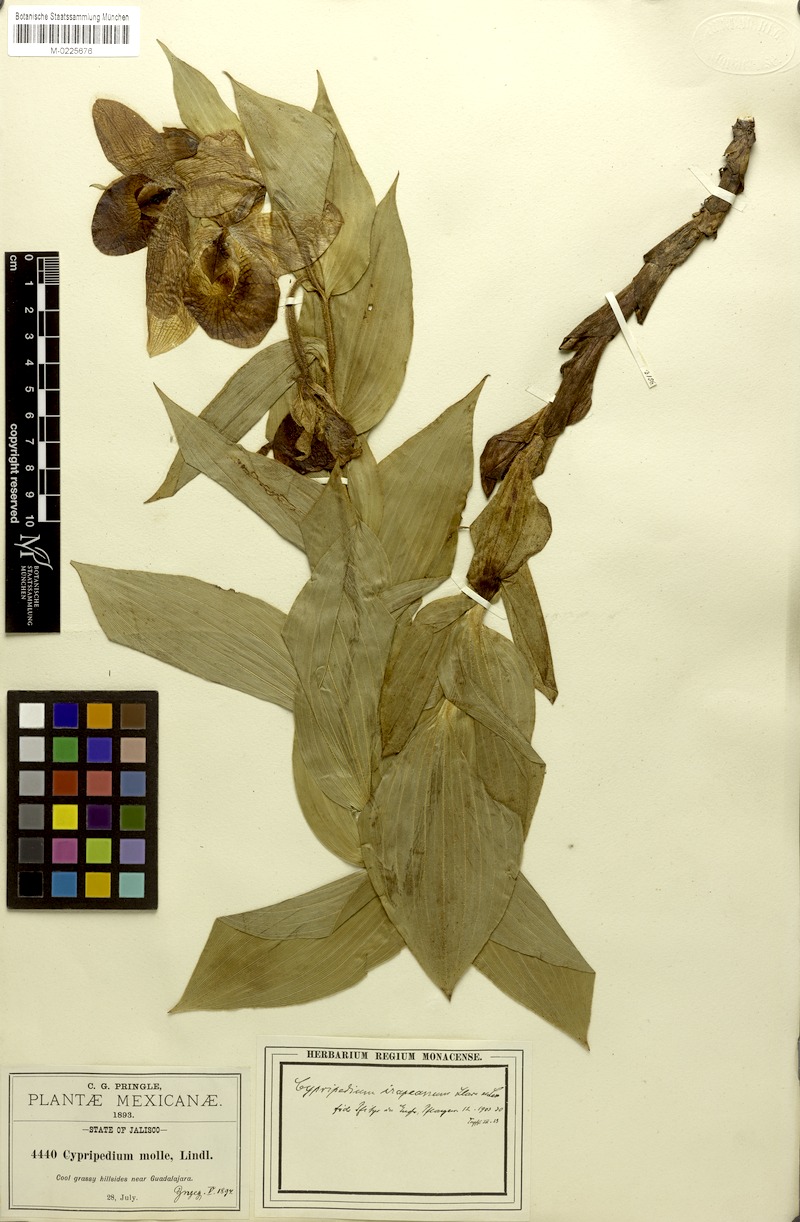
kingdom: Plantae
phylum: Tracheophyta
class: Liliopsida
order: Asparagales
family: Orchidaceae
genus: Cypripedium
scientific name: Cypripedium irapeanum
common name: Irapeao cypripedium
